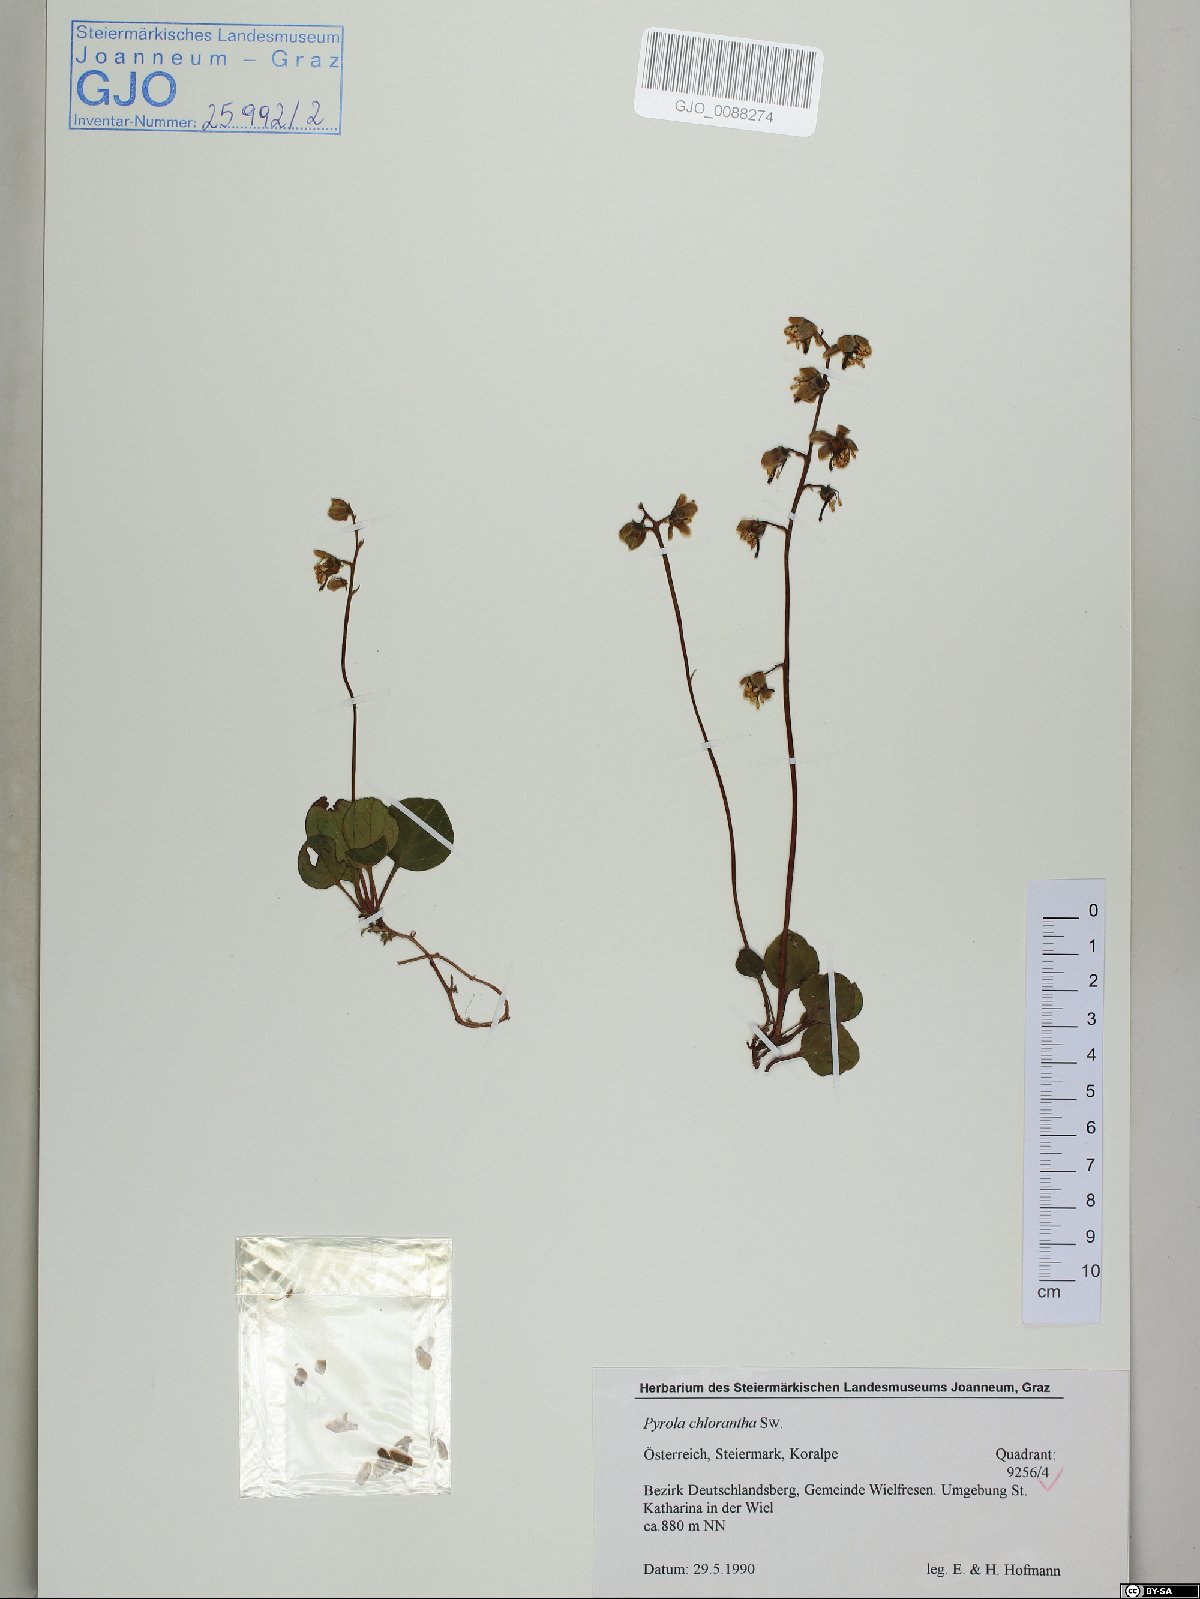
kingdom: Plantae
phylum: Tracheophyta
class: Magnoliopsida
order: Ericales
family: Ericaceae
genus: Pyrola
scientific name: Pyrola chlorantha
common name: Green wintergreen
